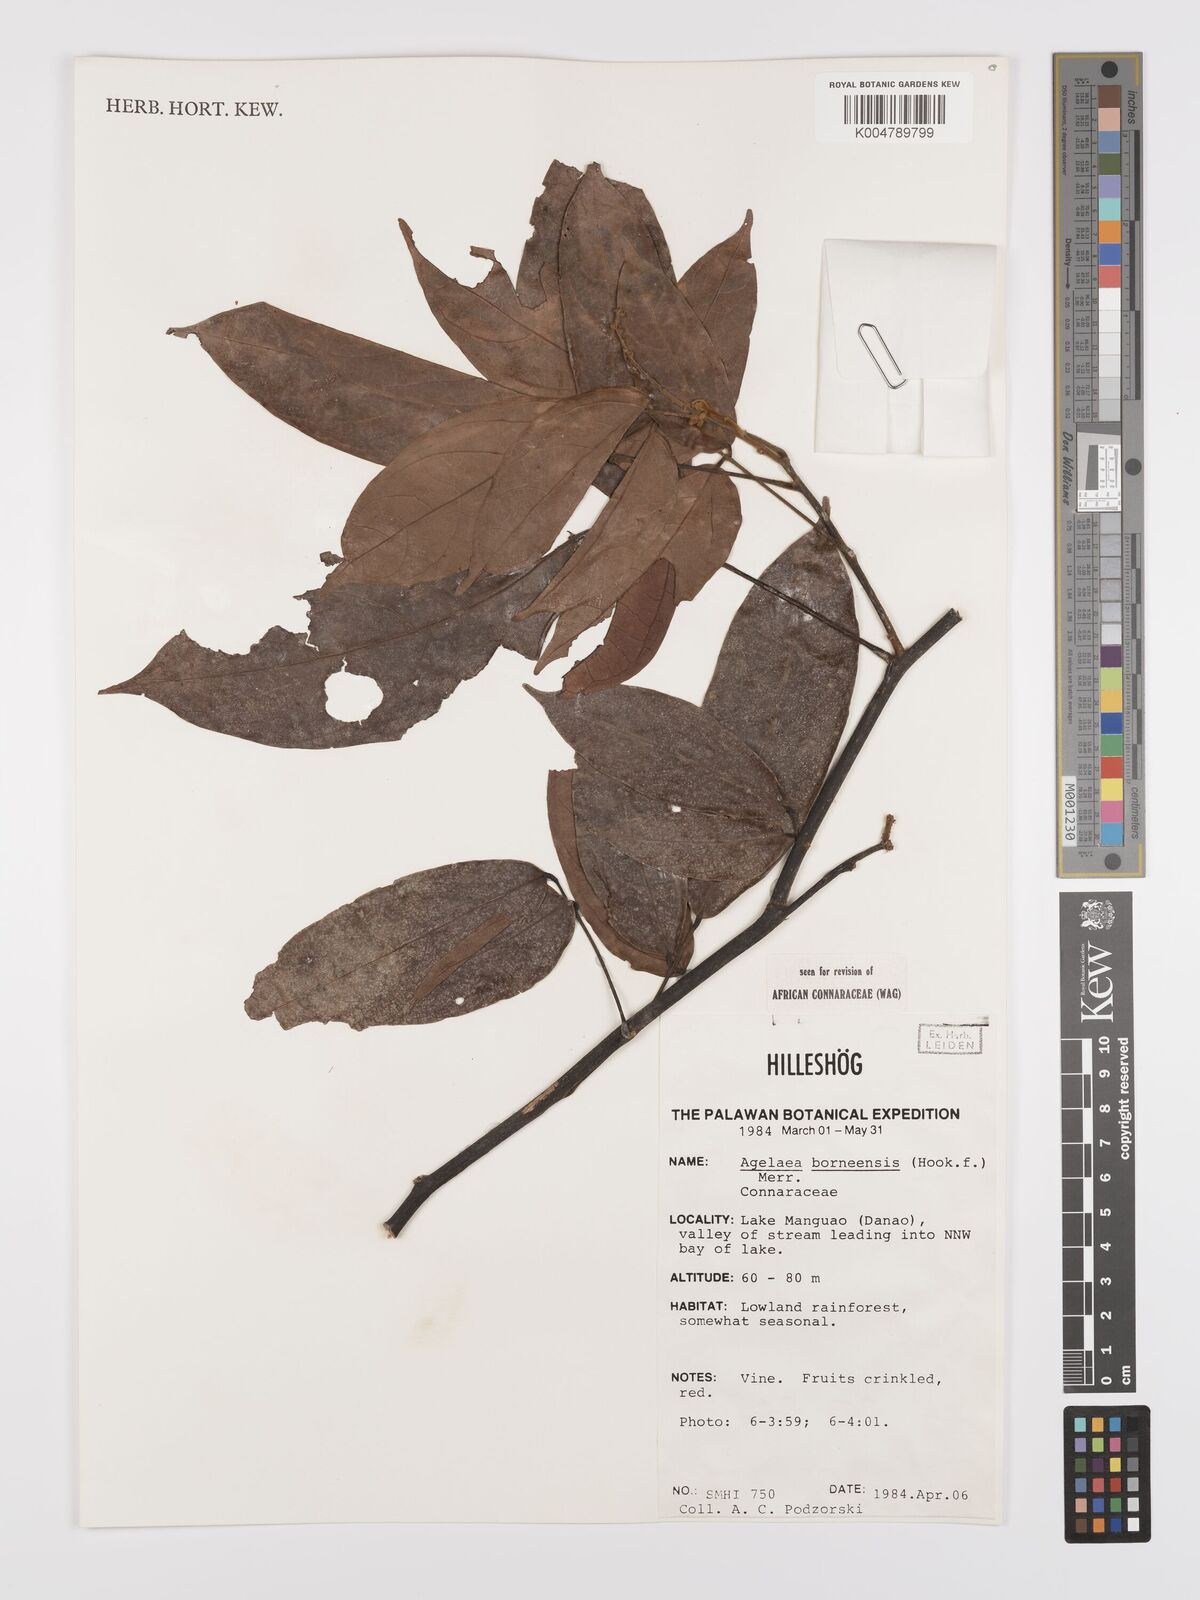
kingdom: Plantae
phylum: Tracheophyta
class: Magnoliopsida
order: Oxalidales
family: Connaraceae
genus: Agelaea
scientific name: Agelaea borneensis
